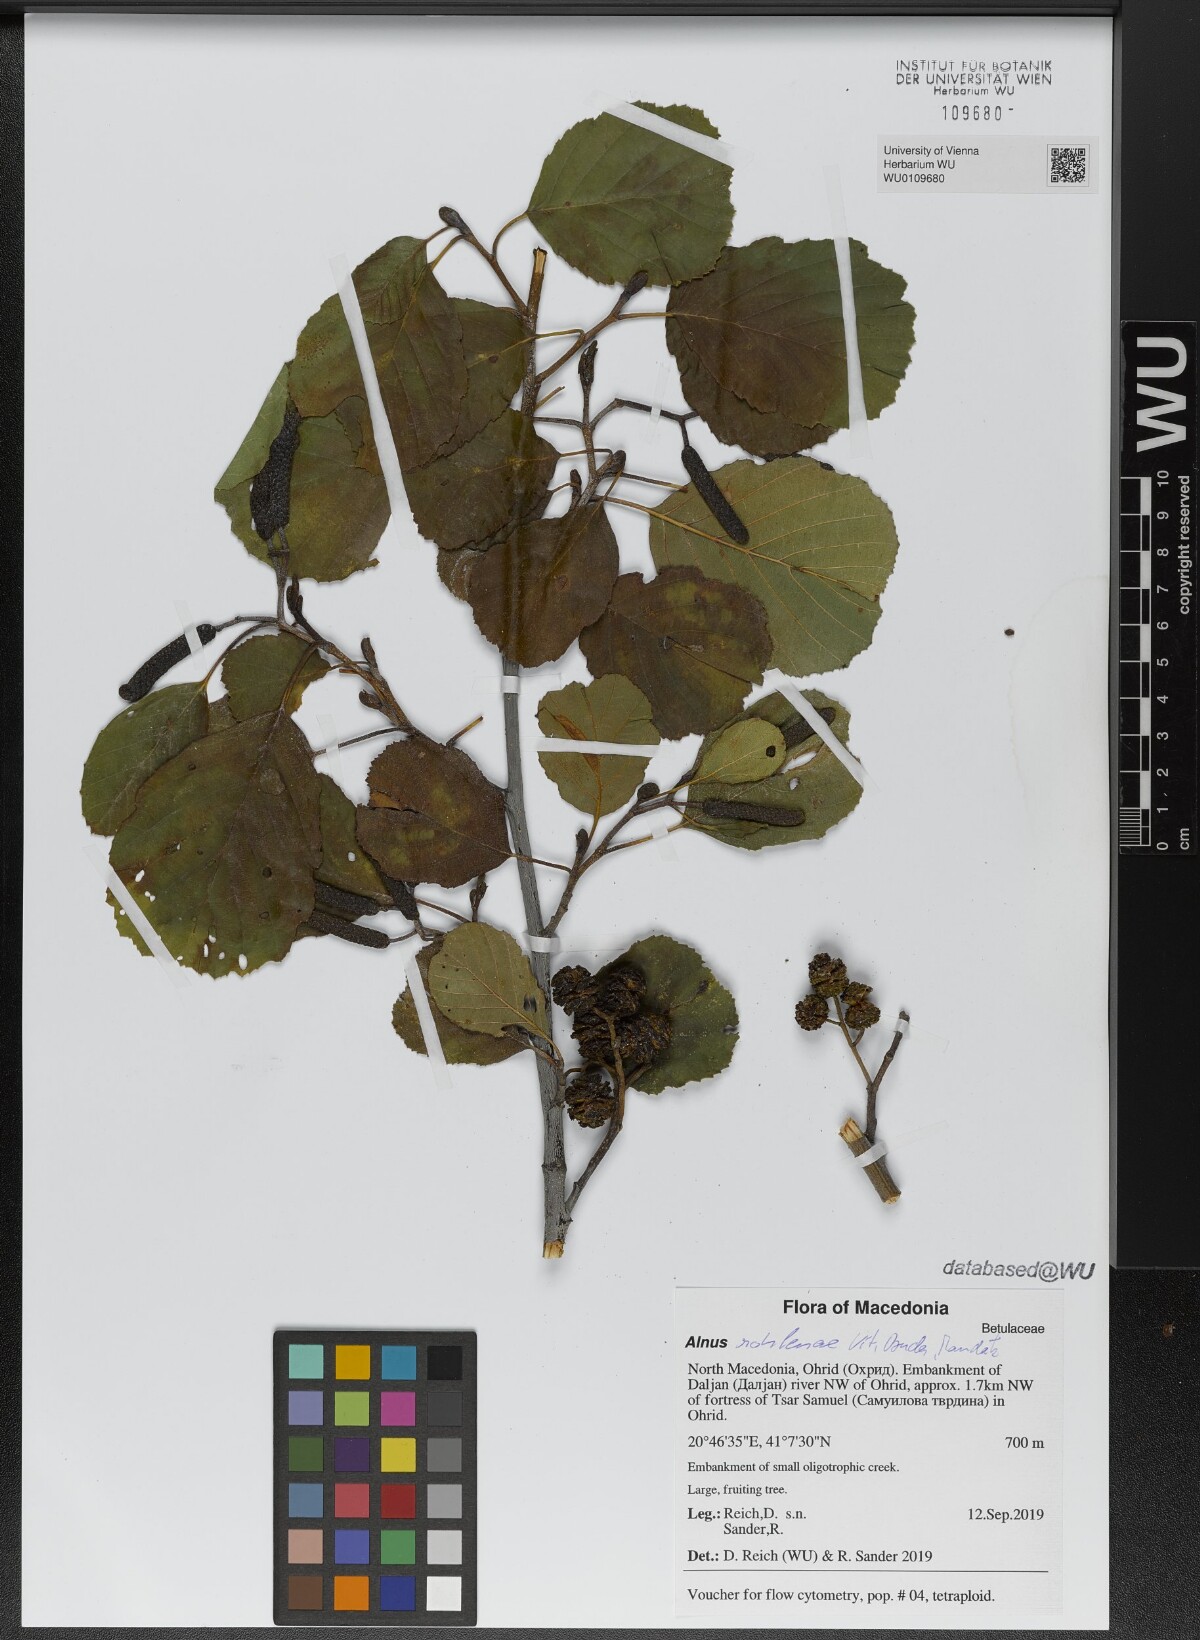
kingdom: Plantae
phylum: Tracheophyta
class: Magnoliopsida
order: Fagales
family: Betulaceae
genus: Alnus
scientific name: Alnus rohlenae
